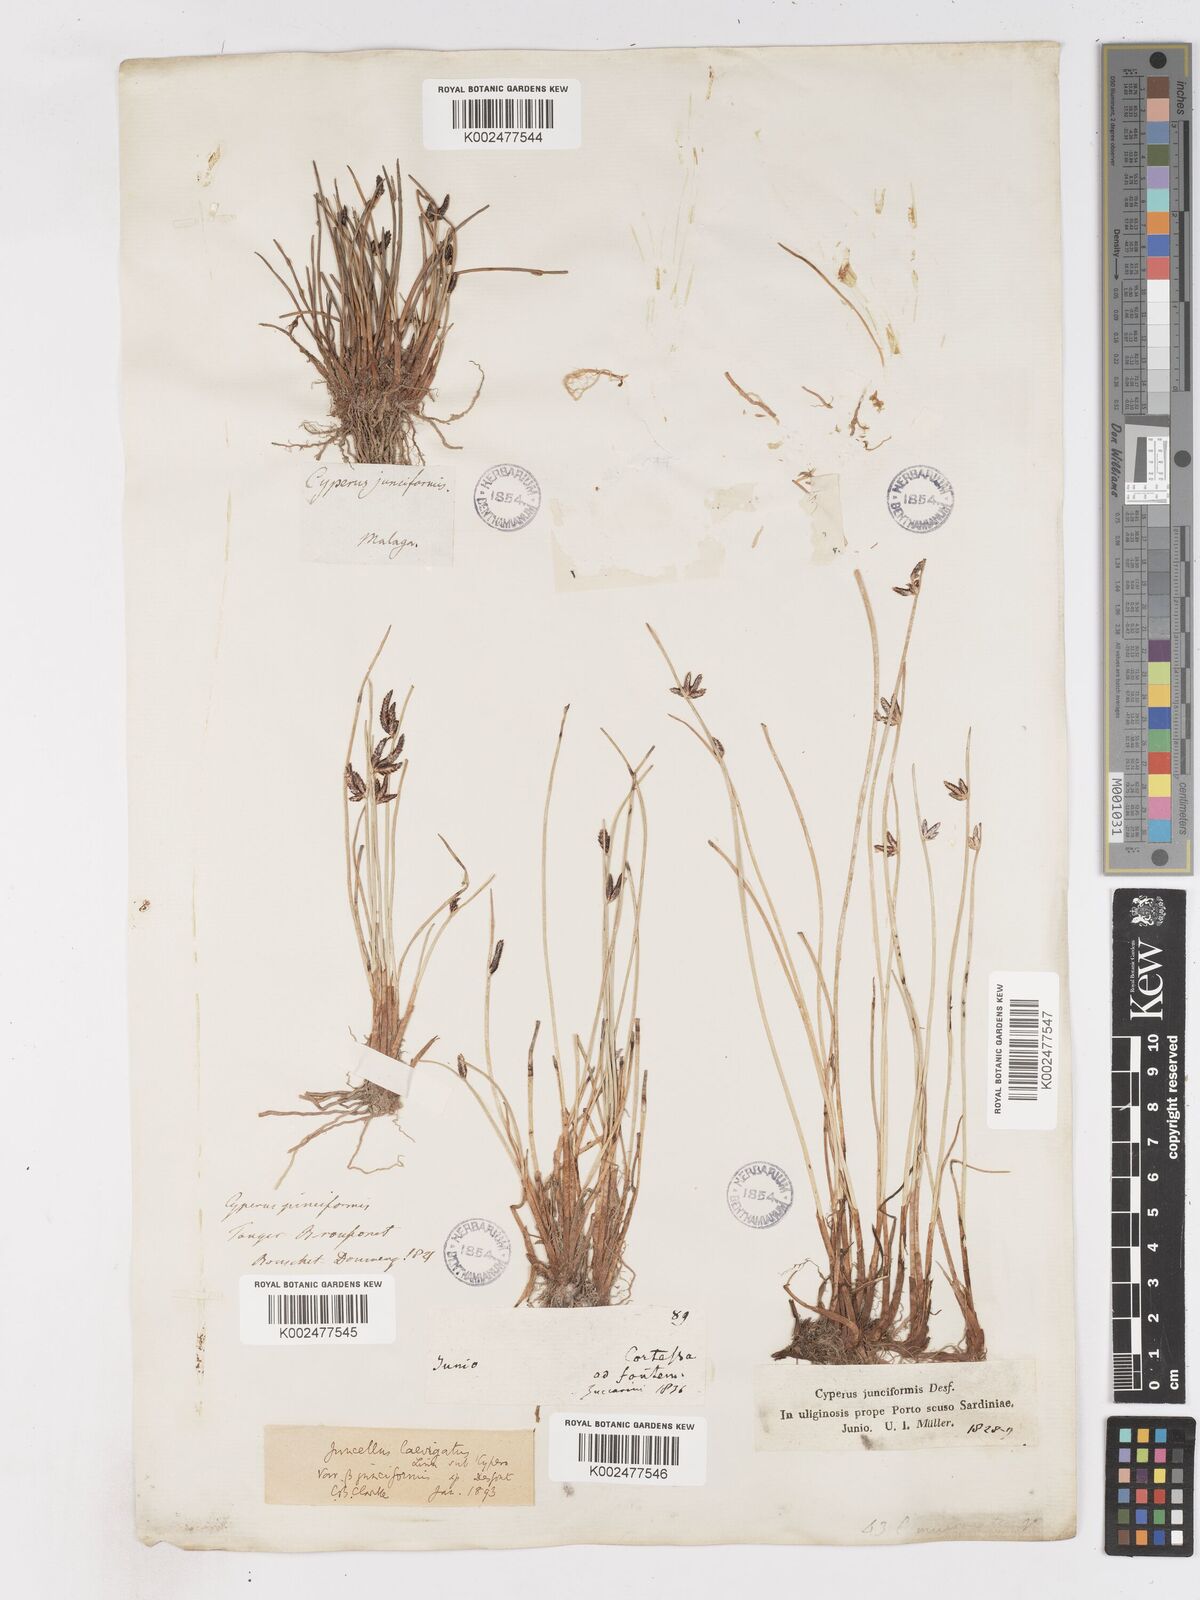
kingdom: Plantae
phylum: Tracheophyta
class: Liliopsida
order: Poales
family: Cyperaceae
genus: Cyperus
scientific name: Cyperus laevigatus
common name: Smooth flat sedge
